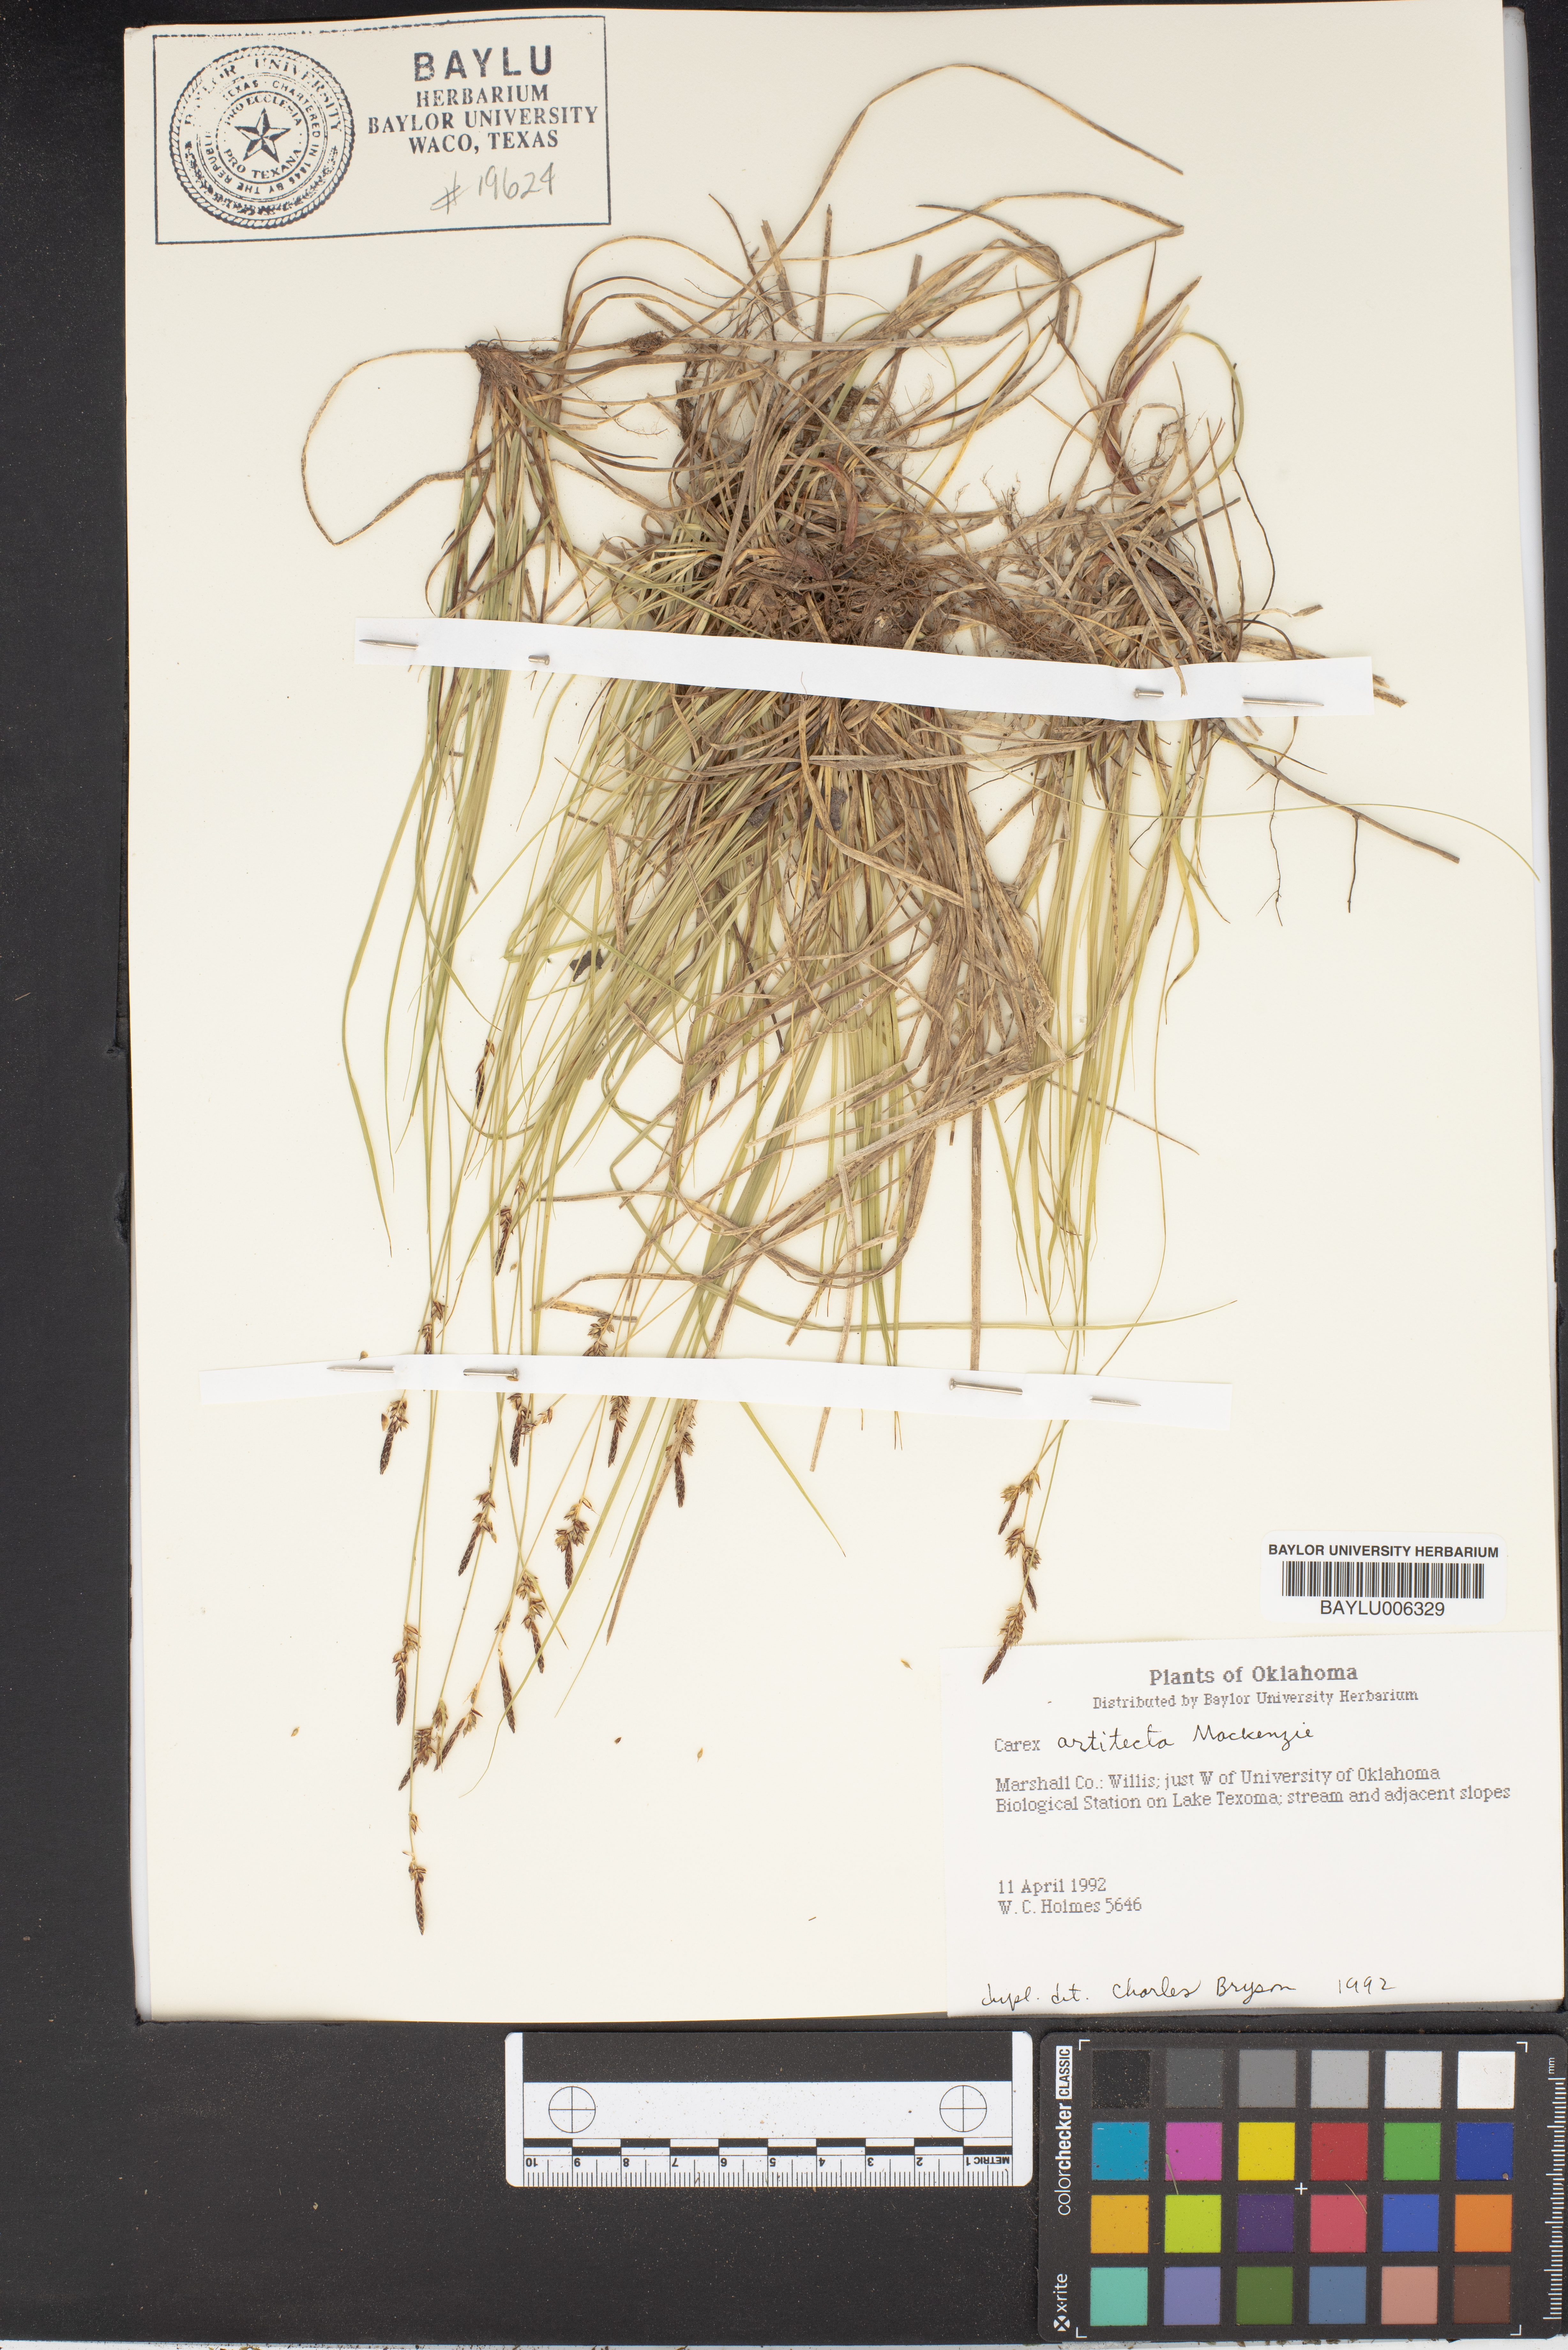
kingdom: Plantae
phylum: Tracheophyta
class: Liliopsida
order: Poales
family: Cyperaceae
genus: Carex
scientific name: Carex albicans
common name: Bellow-beaked sedge
